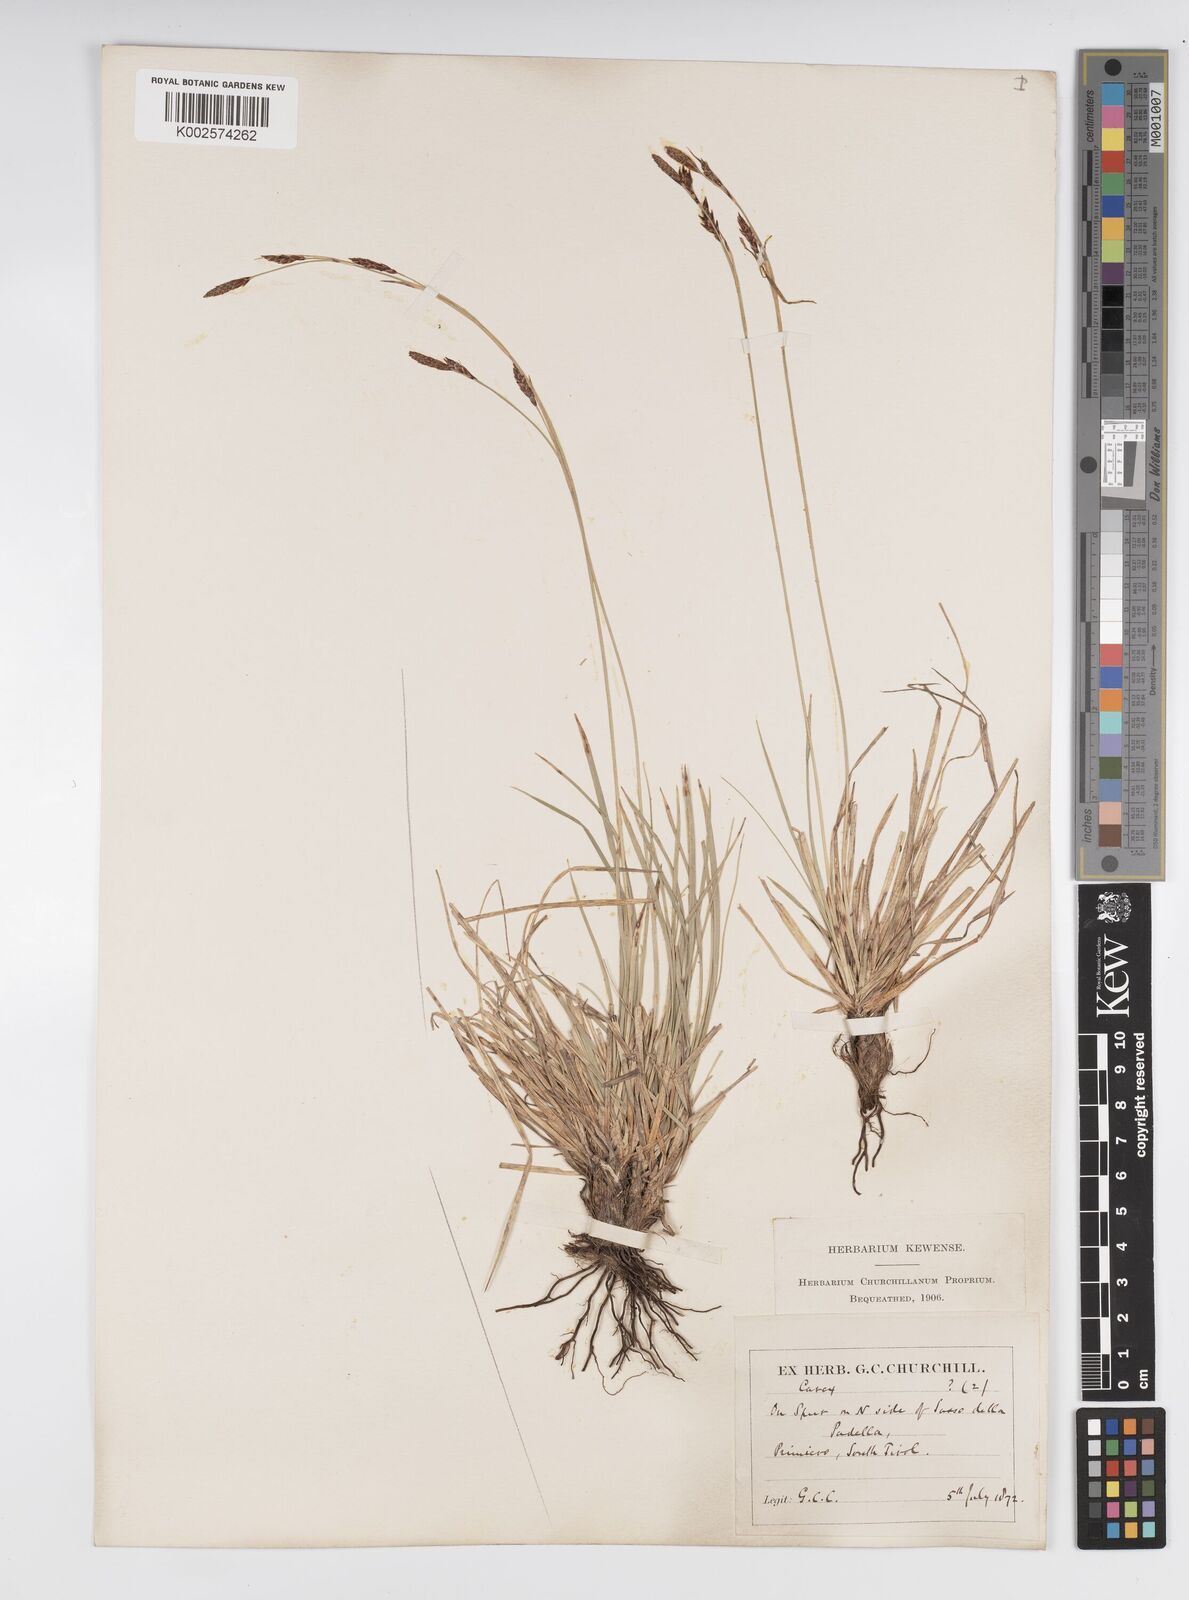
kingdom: Plantae
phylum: Tracheophyta
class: Liliopsida
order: Poales
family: Cyperaceae
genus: Carex
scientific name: Carex frigida
